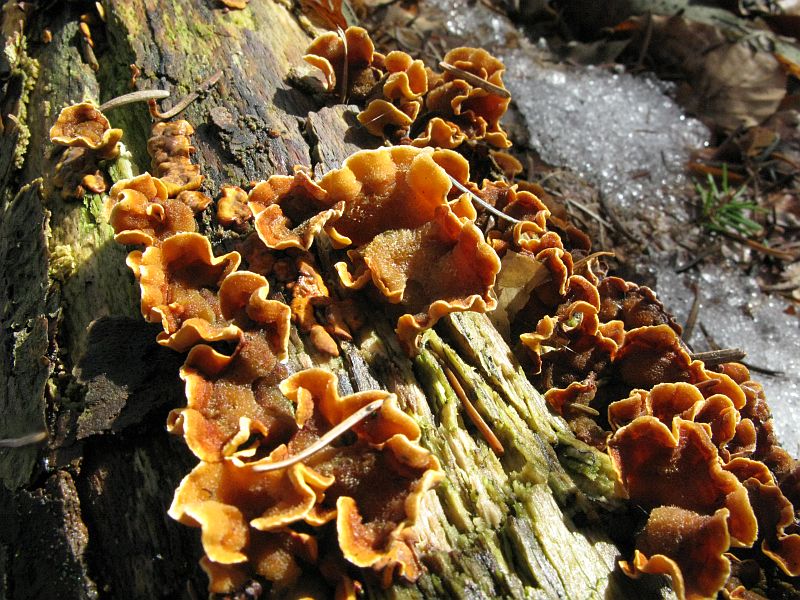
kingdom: Fungi
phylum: Basidiomycota
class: Agaricomycetes
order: Russulales
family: Stereaceae
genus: Stereum
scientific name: Stereum hirsutum
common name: håret lædersvamp
